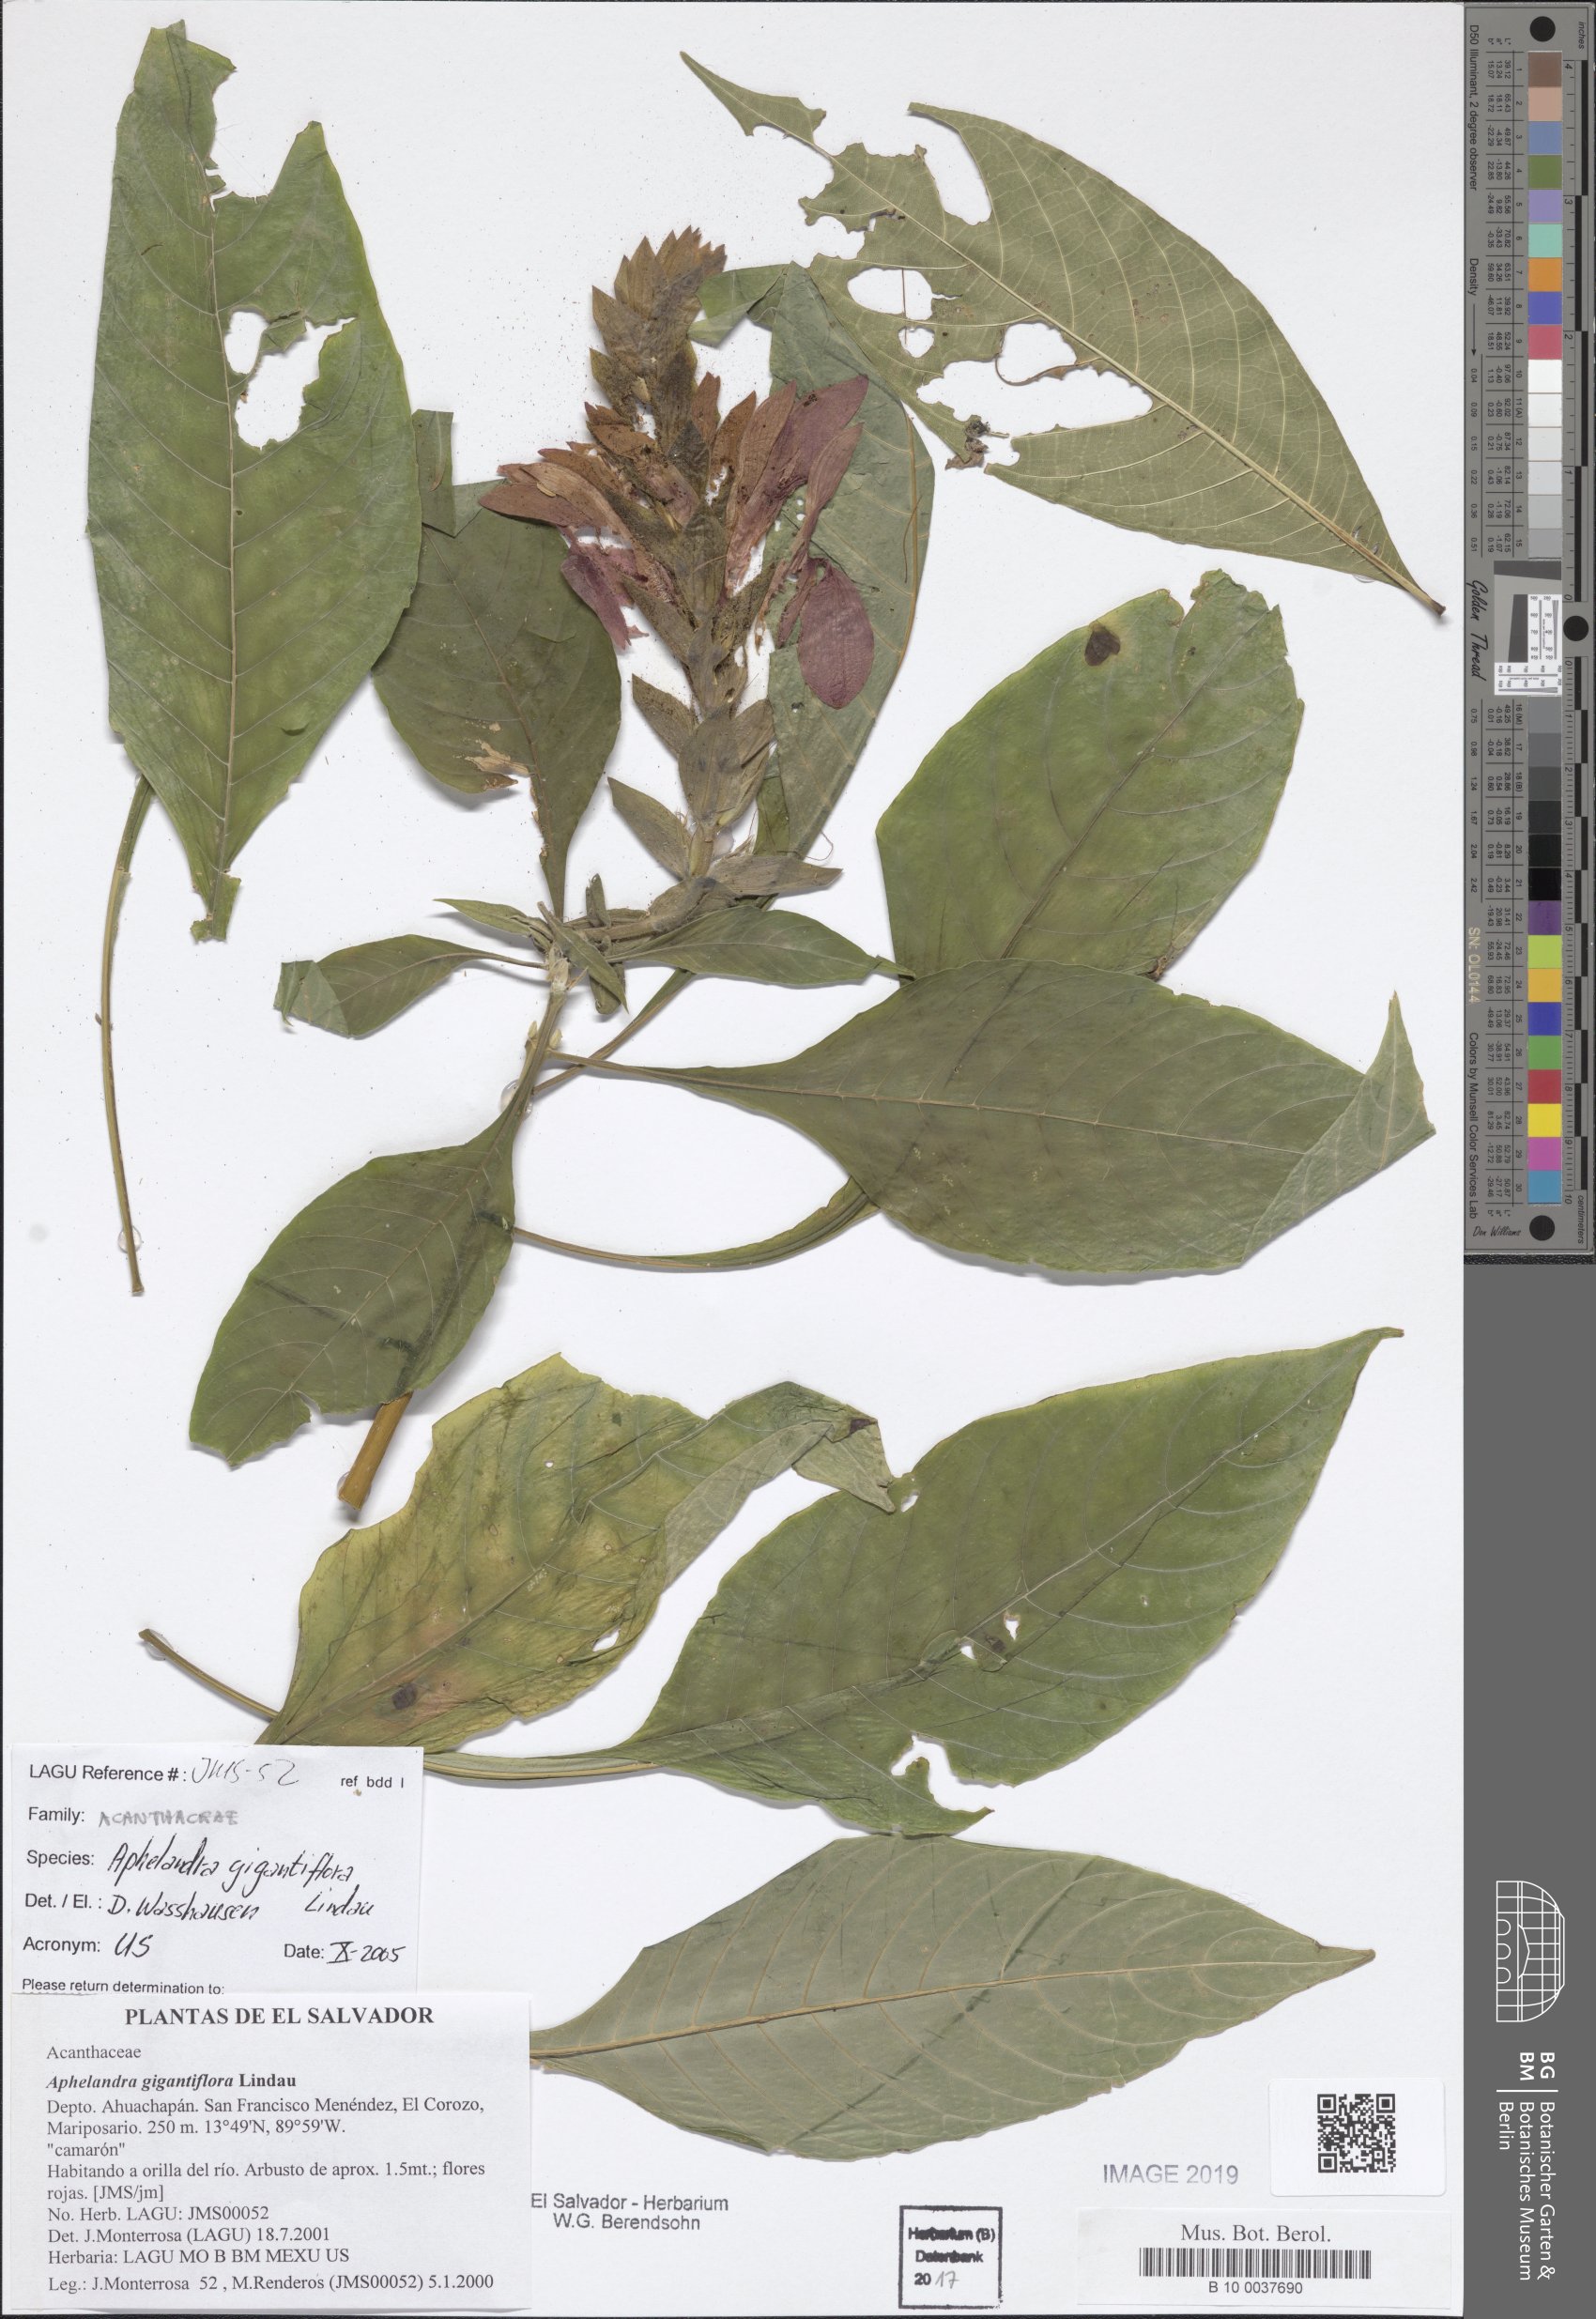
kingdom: Plantae
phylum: Tracheophyta
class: Magnoliopsida
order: Lamiales
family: Acanthaceae
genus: Aphelandra
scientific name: Aphelandra gigantiflora
